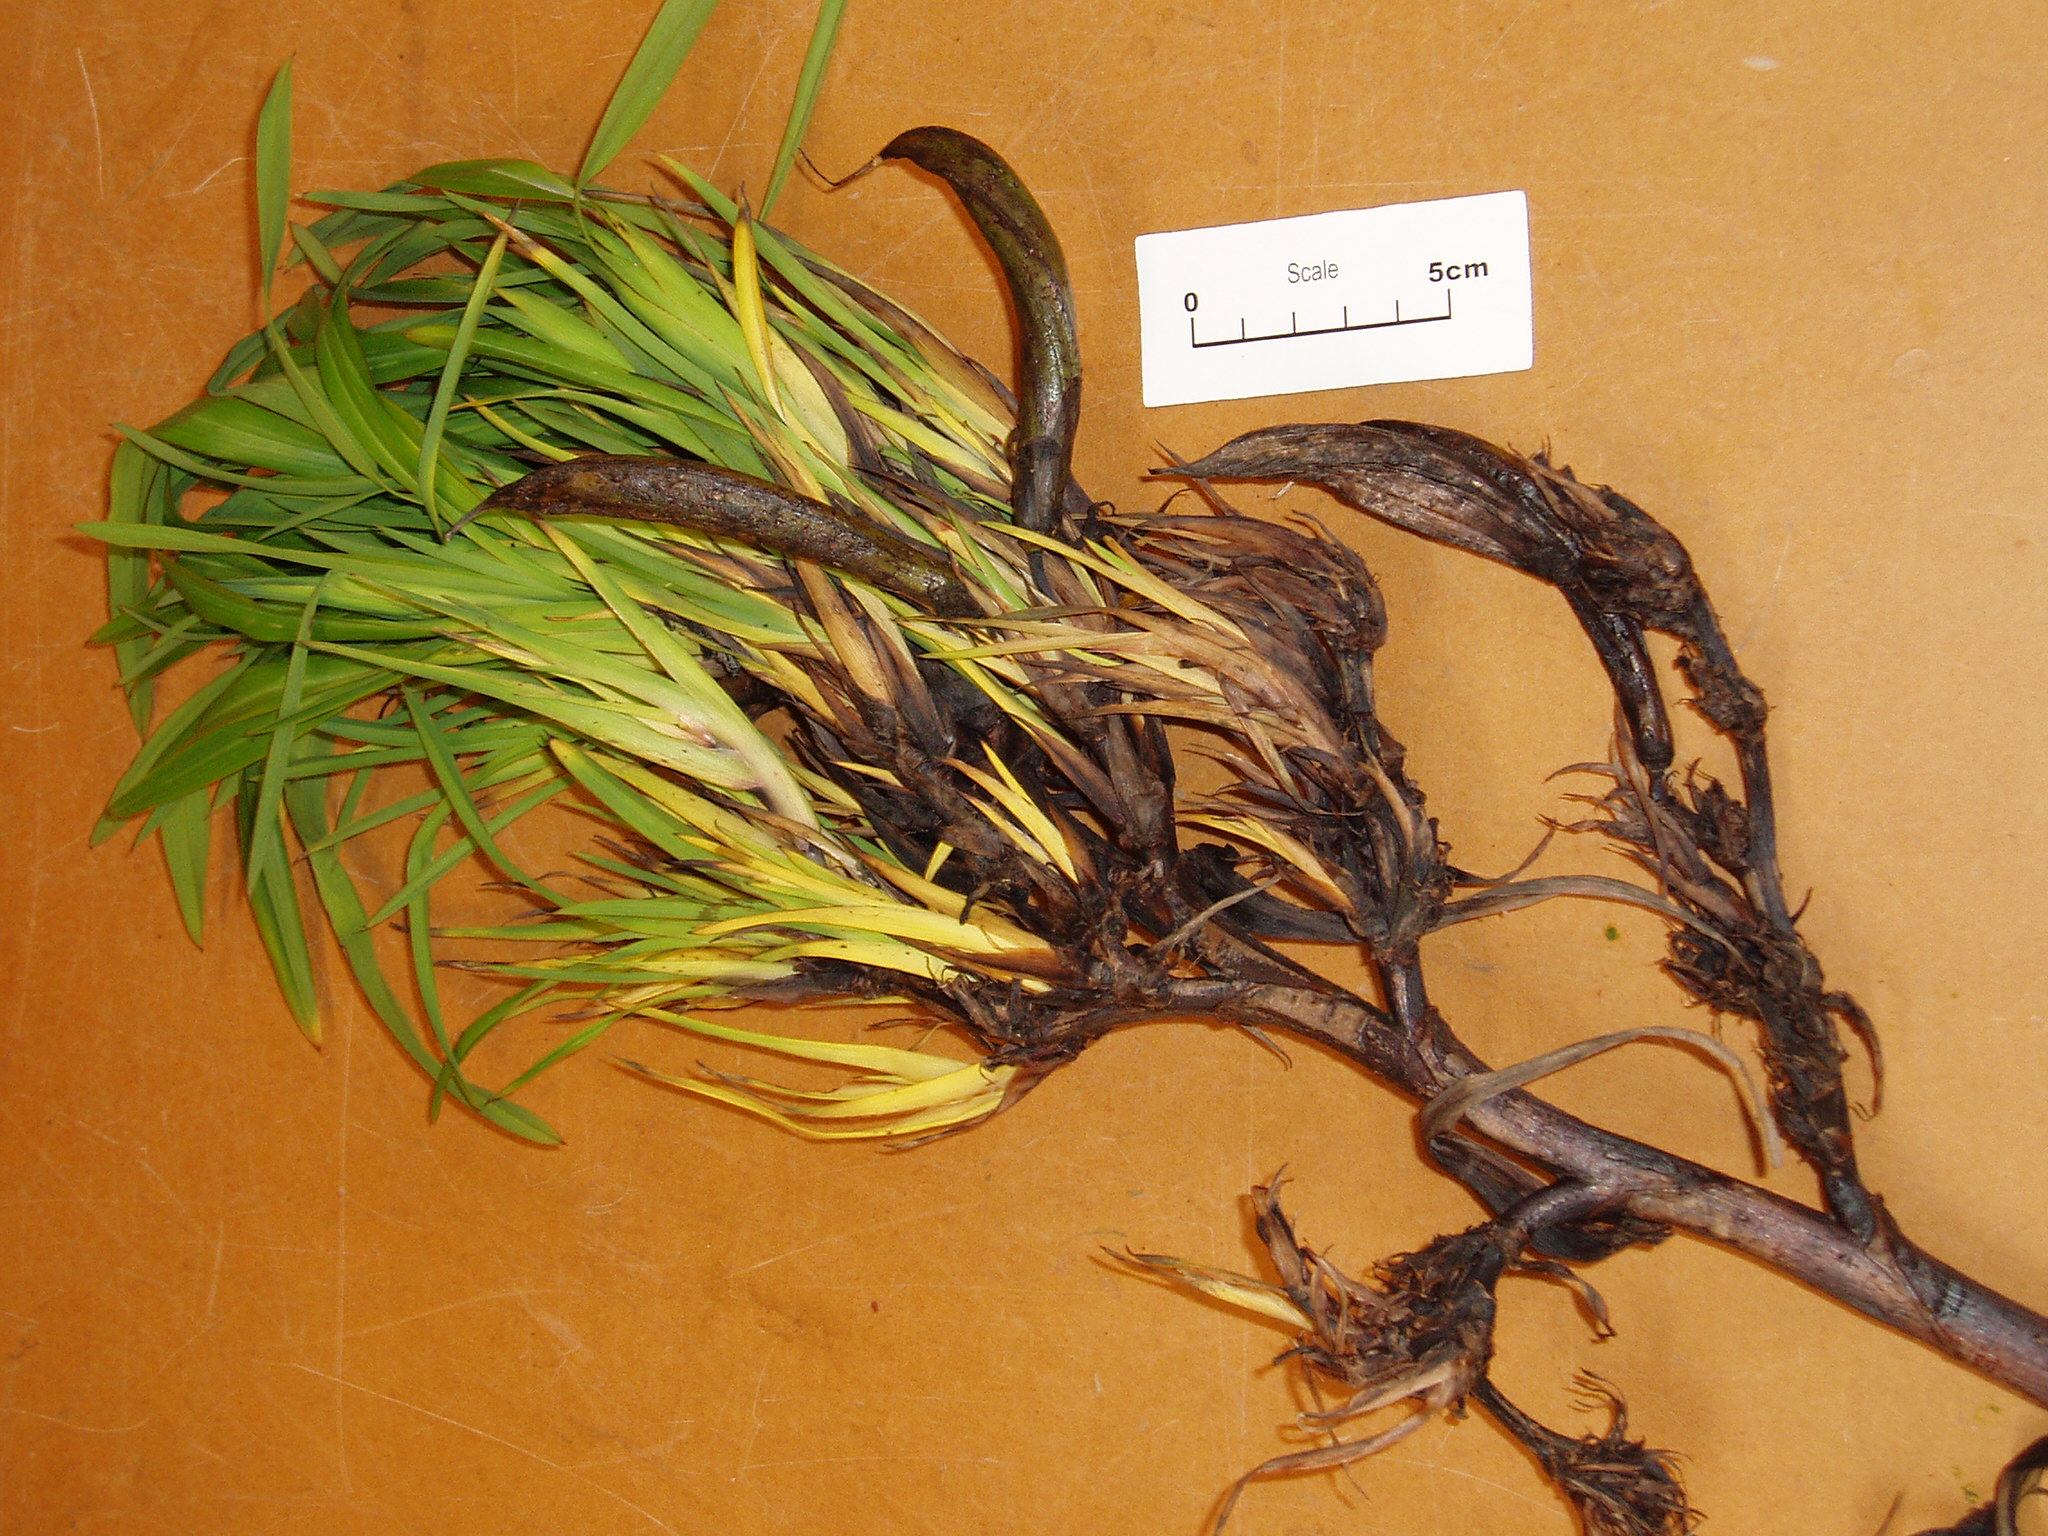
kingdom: Plantae
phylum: Tracheophyta
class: Liliopsida
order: Asparagales
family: Asphodelaceae
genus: Phormium
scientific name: Phormium colensoi
